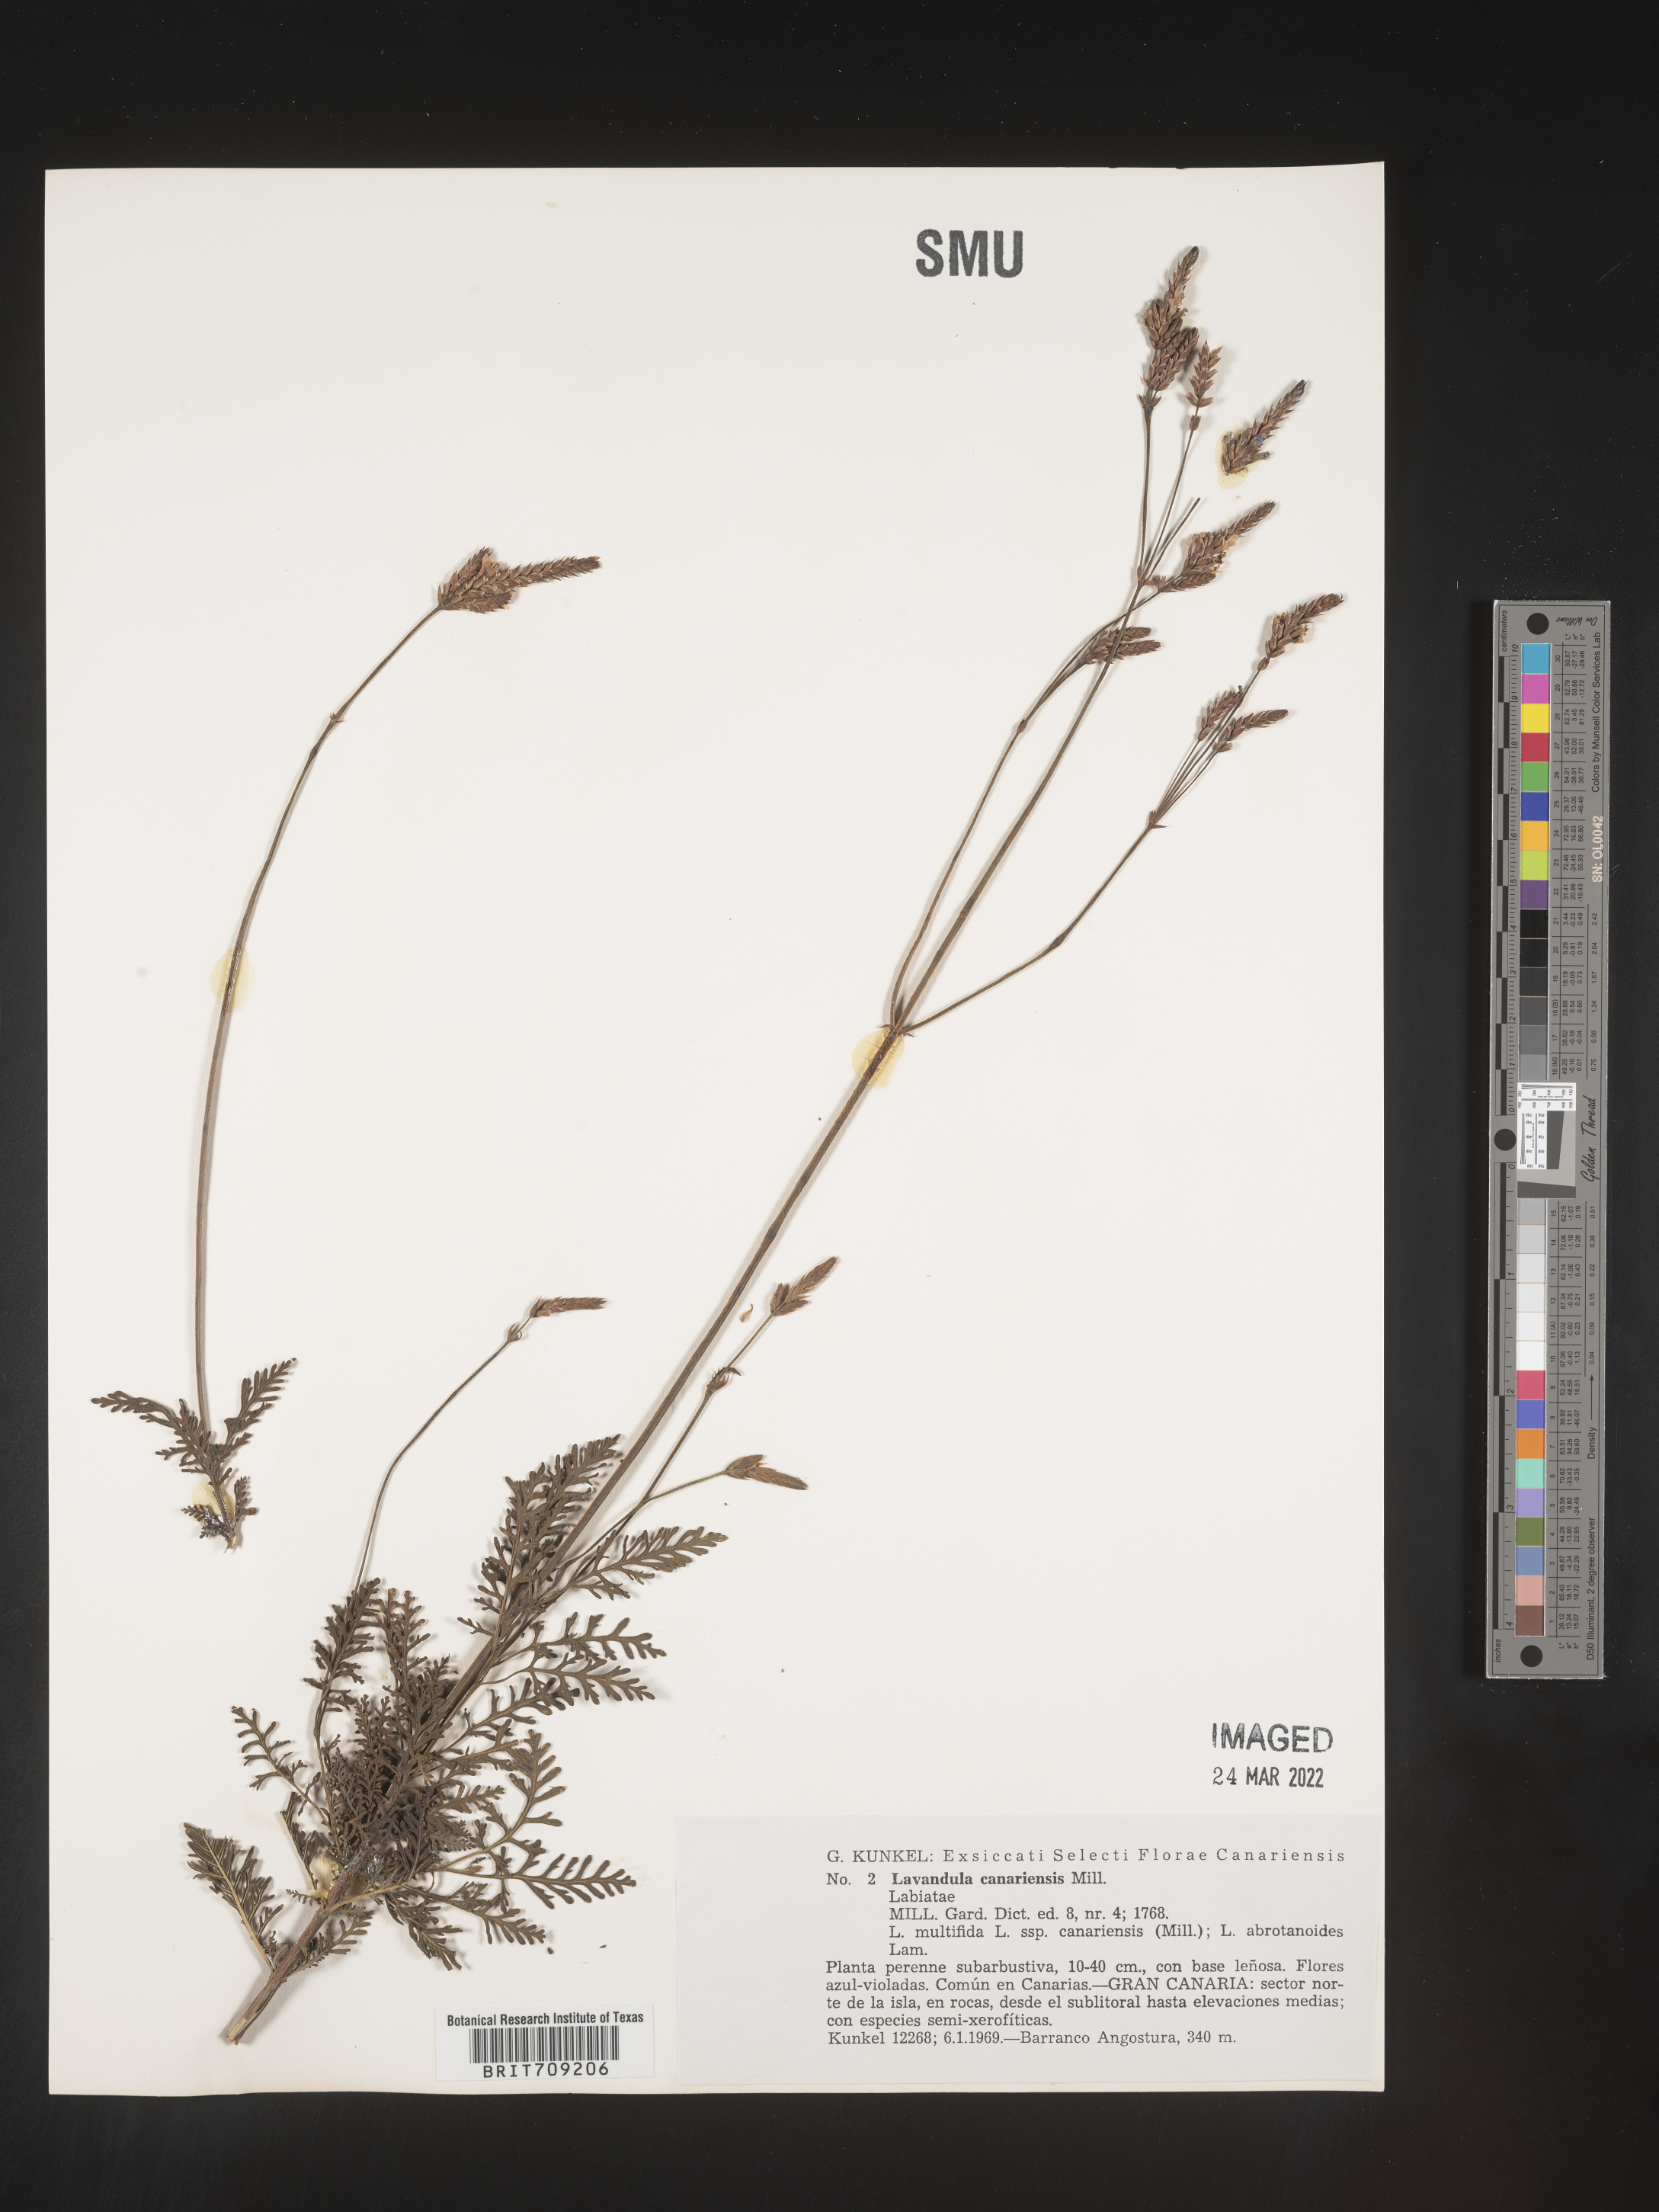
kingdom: Plantae
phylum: Tracheophyta
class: Magnoliopsida
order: Lamiales
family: Lamiaceae
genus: Lavandula
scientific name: Lavandula
